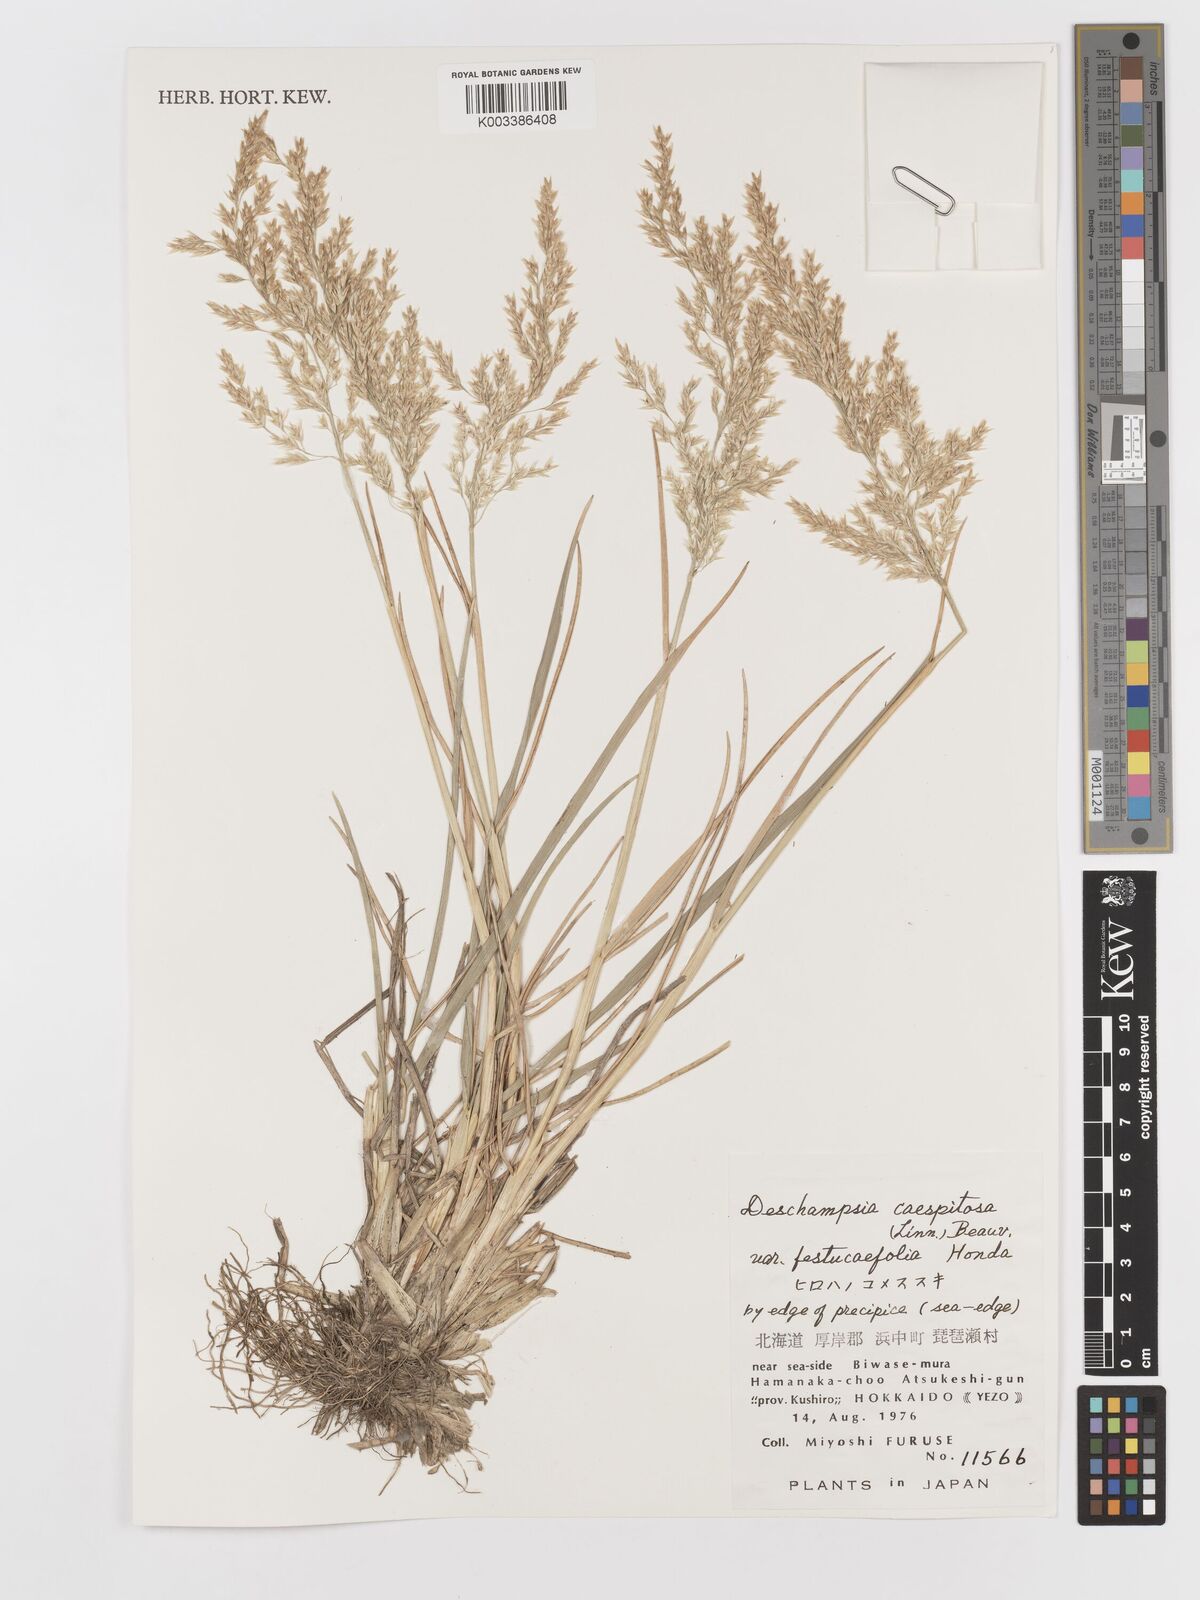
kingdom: Plantae
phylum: Tracheophyta
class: Liliopsida
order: Poales
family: Poaceae
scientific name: Poaceae
